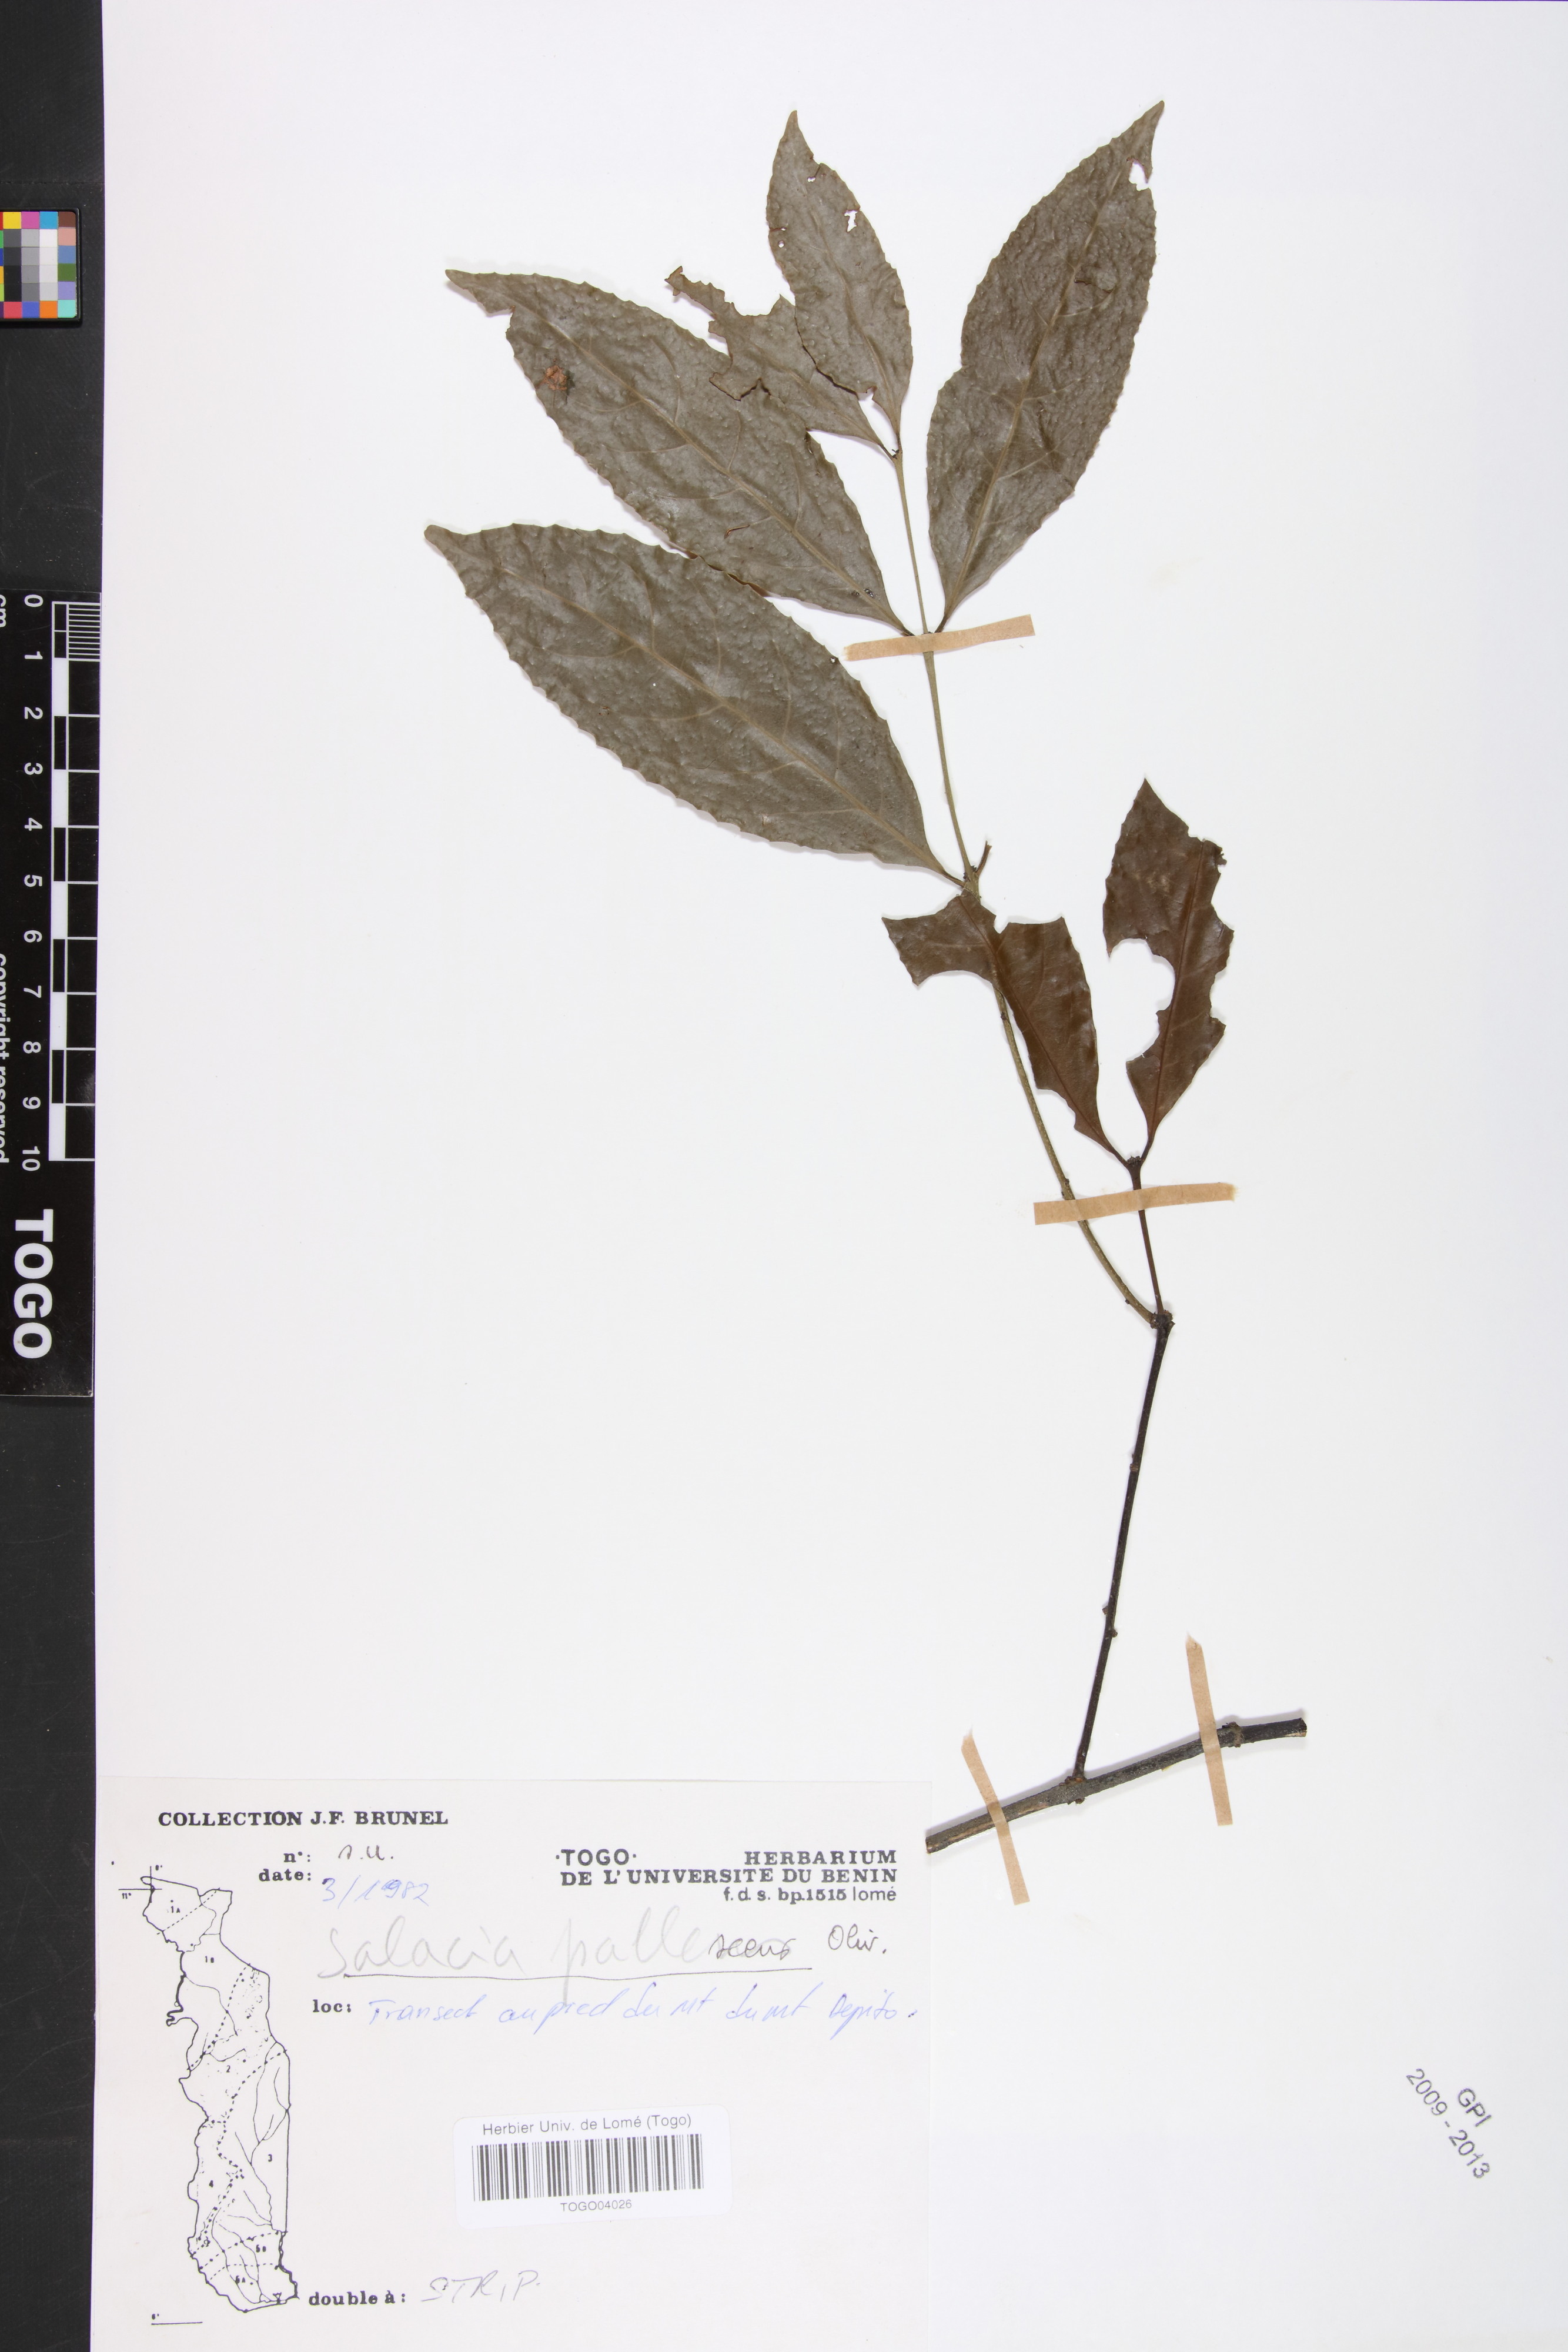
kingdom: Plantae
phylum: Tracheophyta
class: Magnoliopsida
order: Celastrales
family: Celastraceae
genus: Salacia
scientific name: Salacia pallescens
